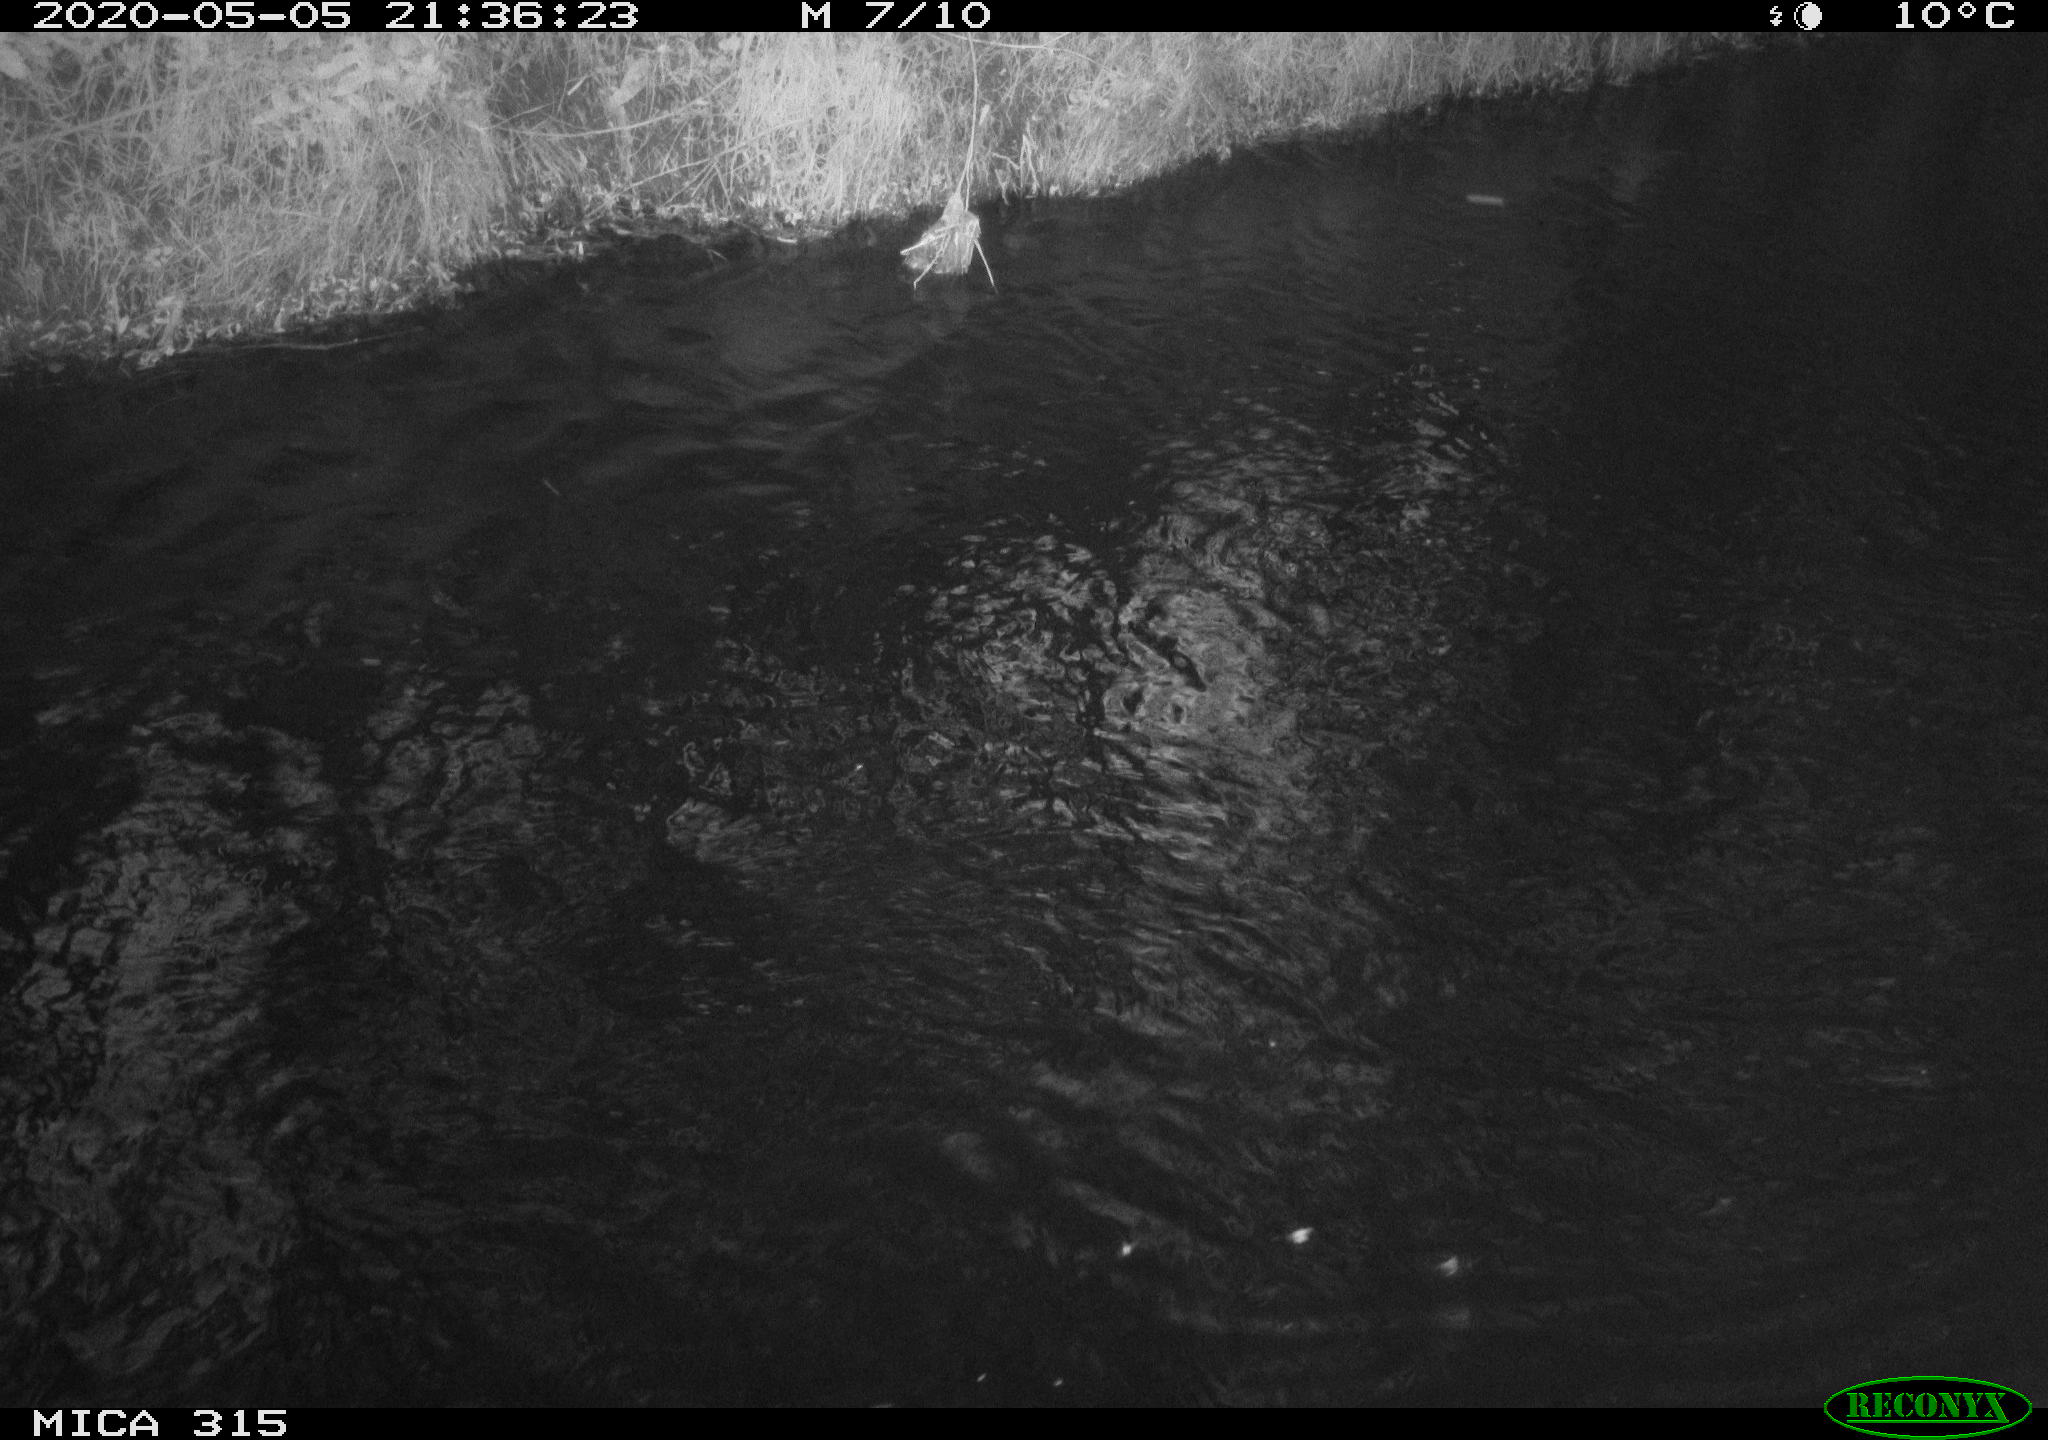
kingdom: Animalia
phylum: Chordata
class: Aves
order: Anseriformes
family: Anatidae
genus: Anas
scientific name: Anas platyrhynchos
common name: Mallard
